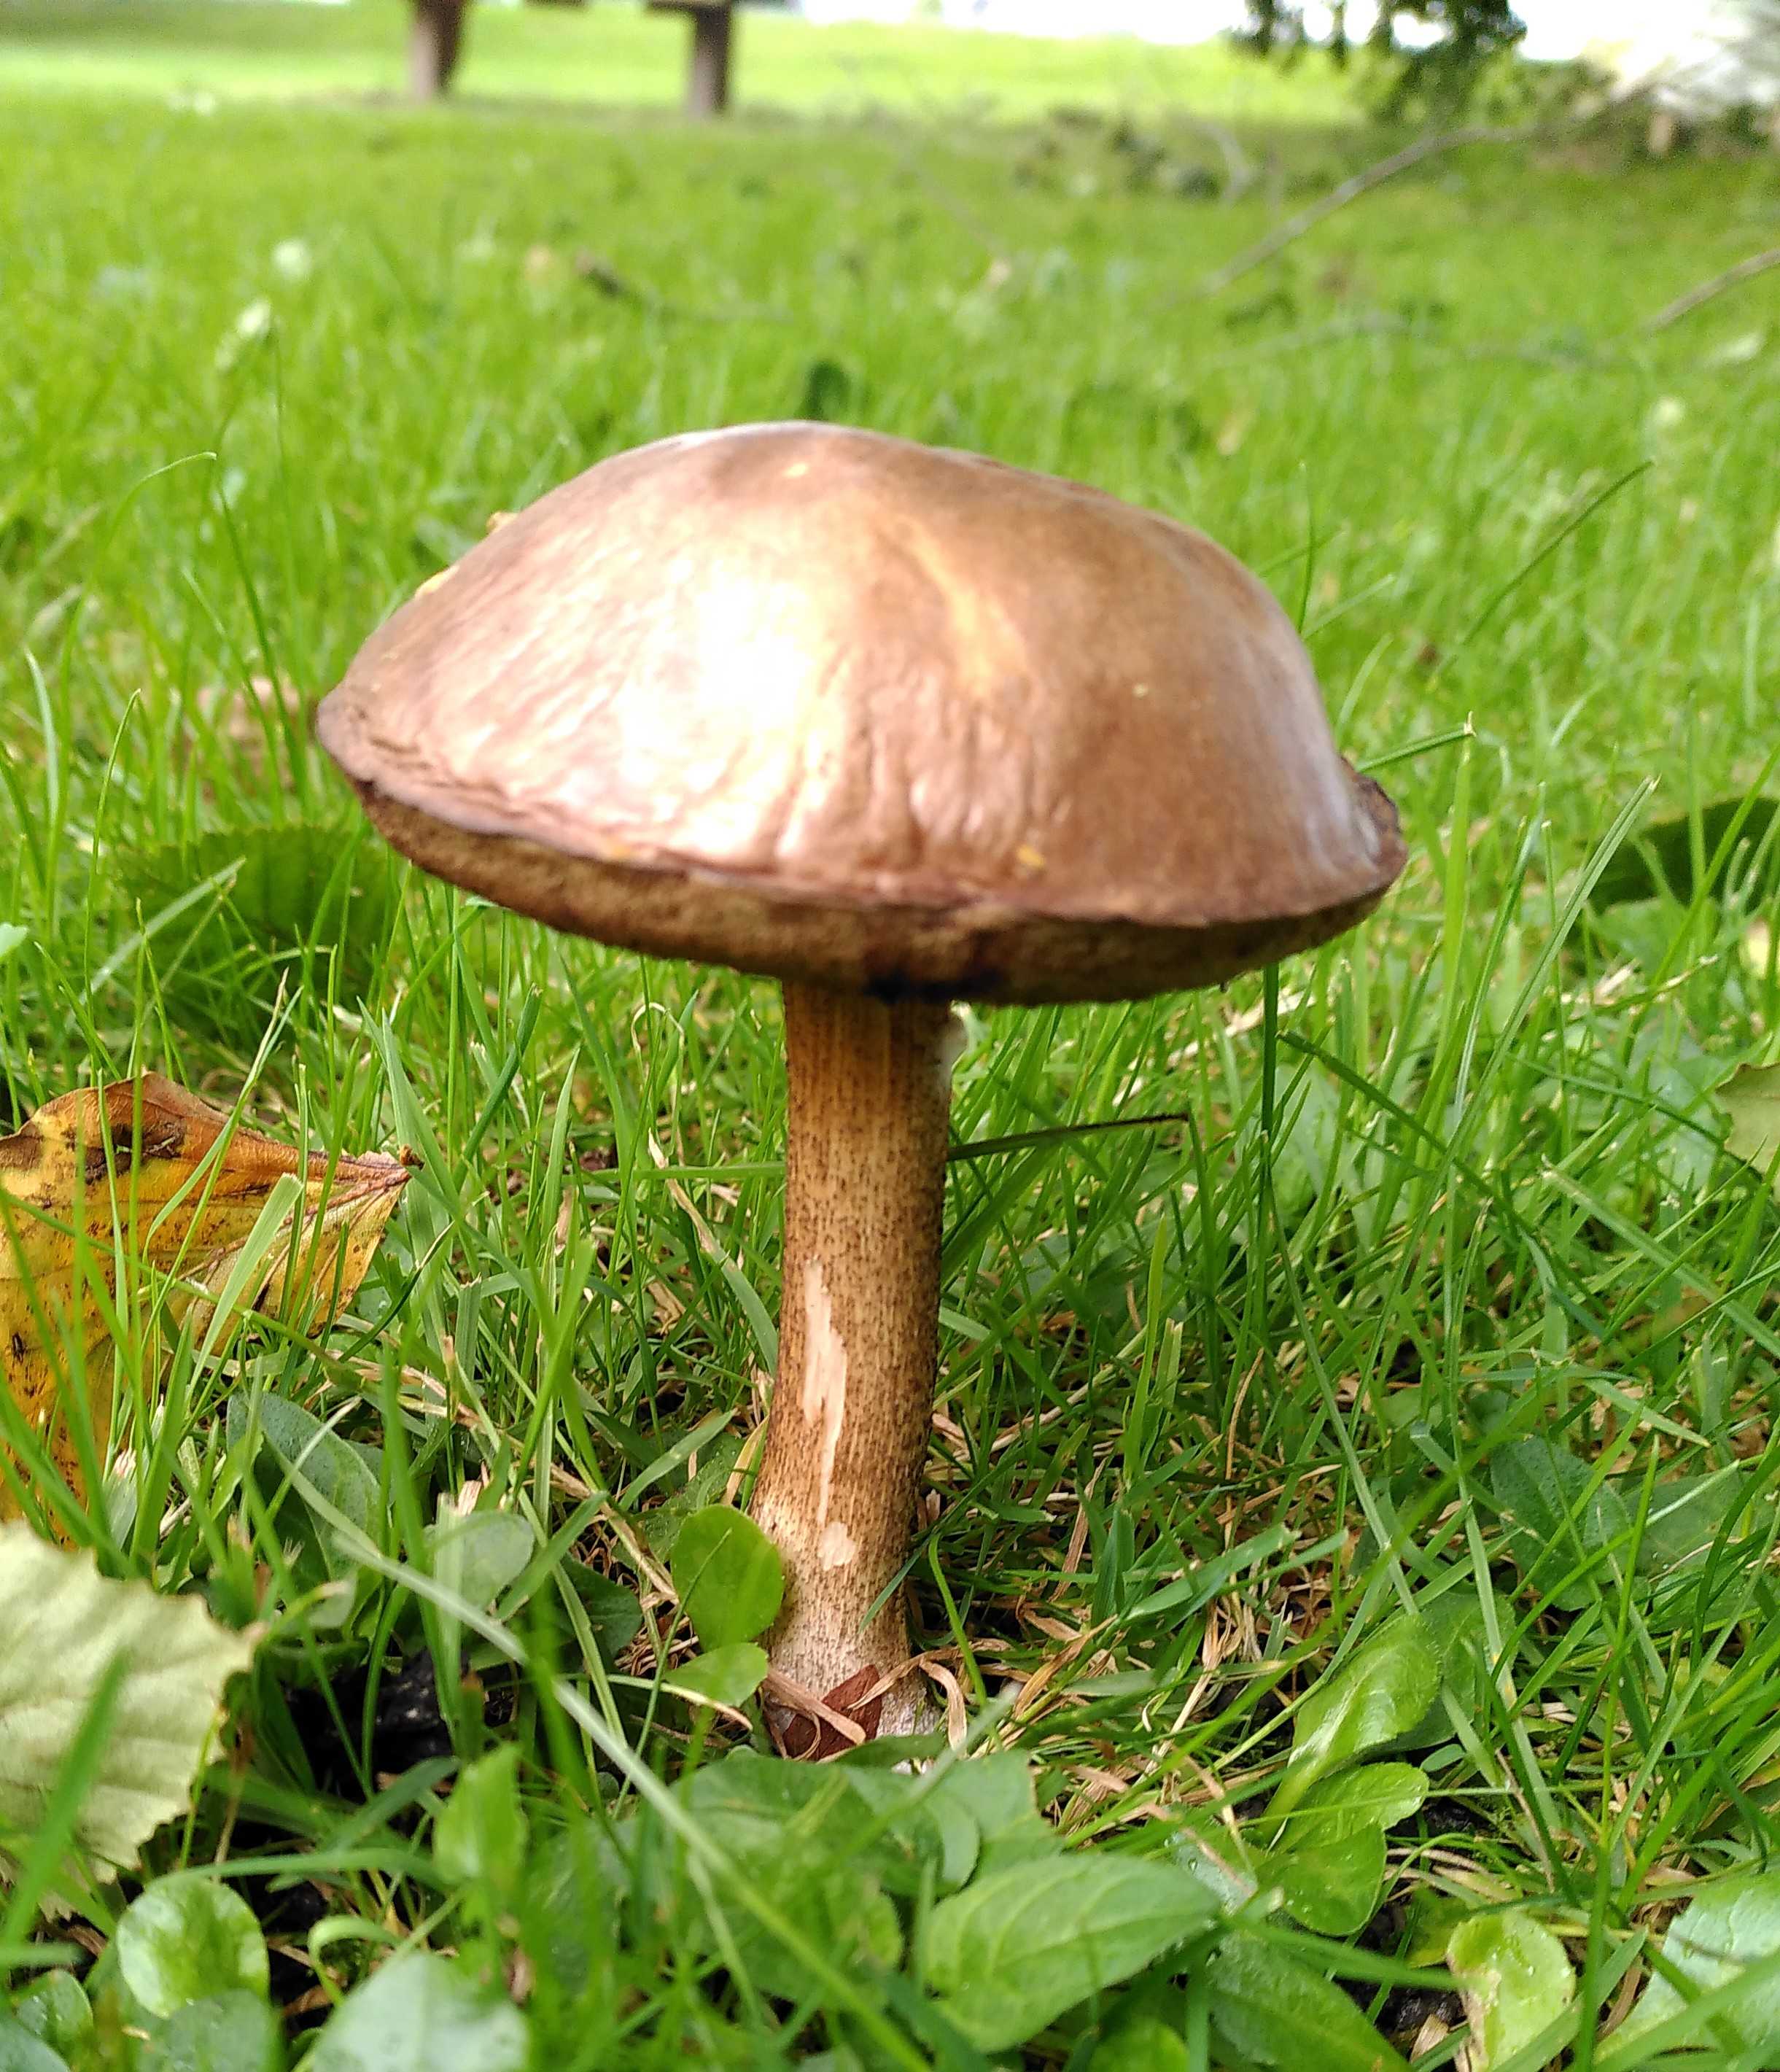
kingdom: Fungi
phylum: Basidiomycota
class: Agaricomycetes
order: Boletales
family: Boletaceae
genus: Leccinum
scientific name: Leccinum
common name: skælrørhat
